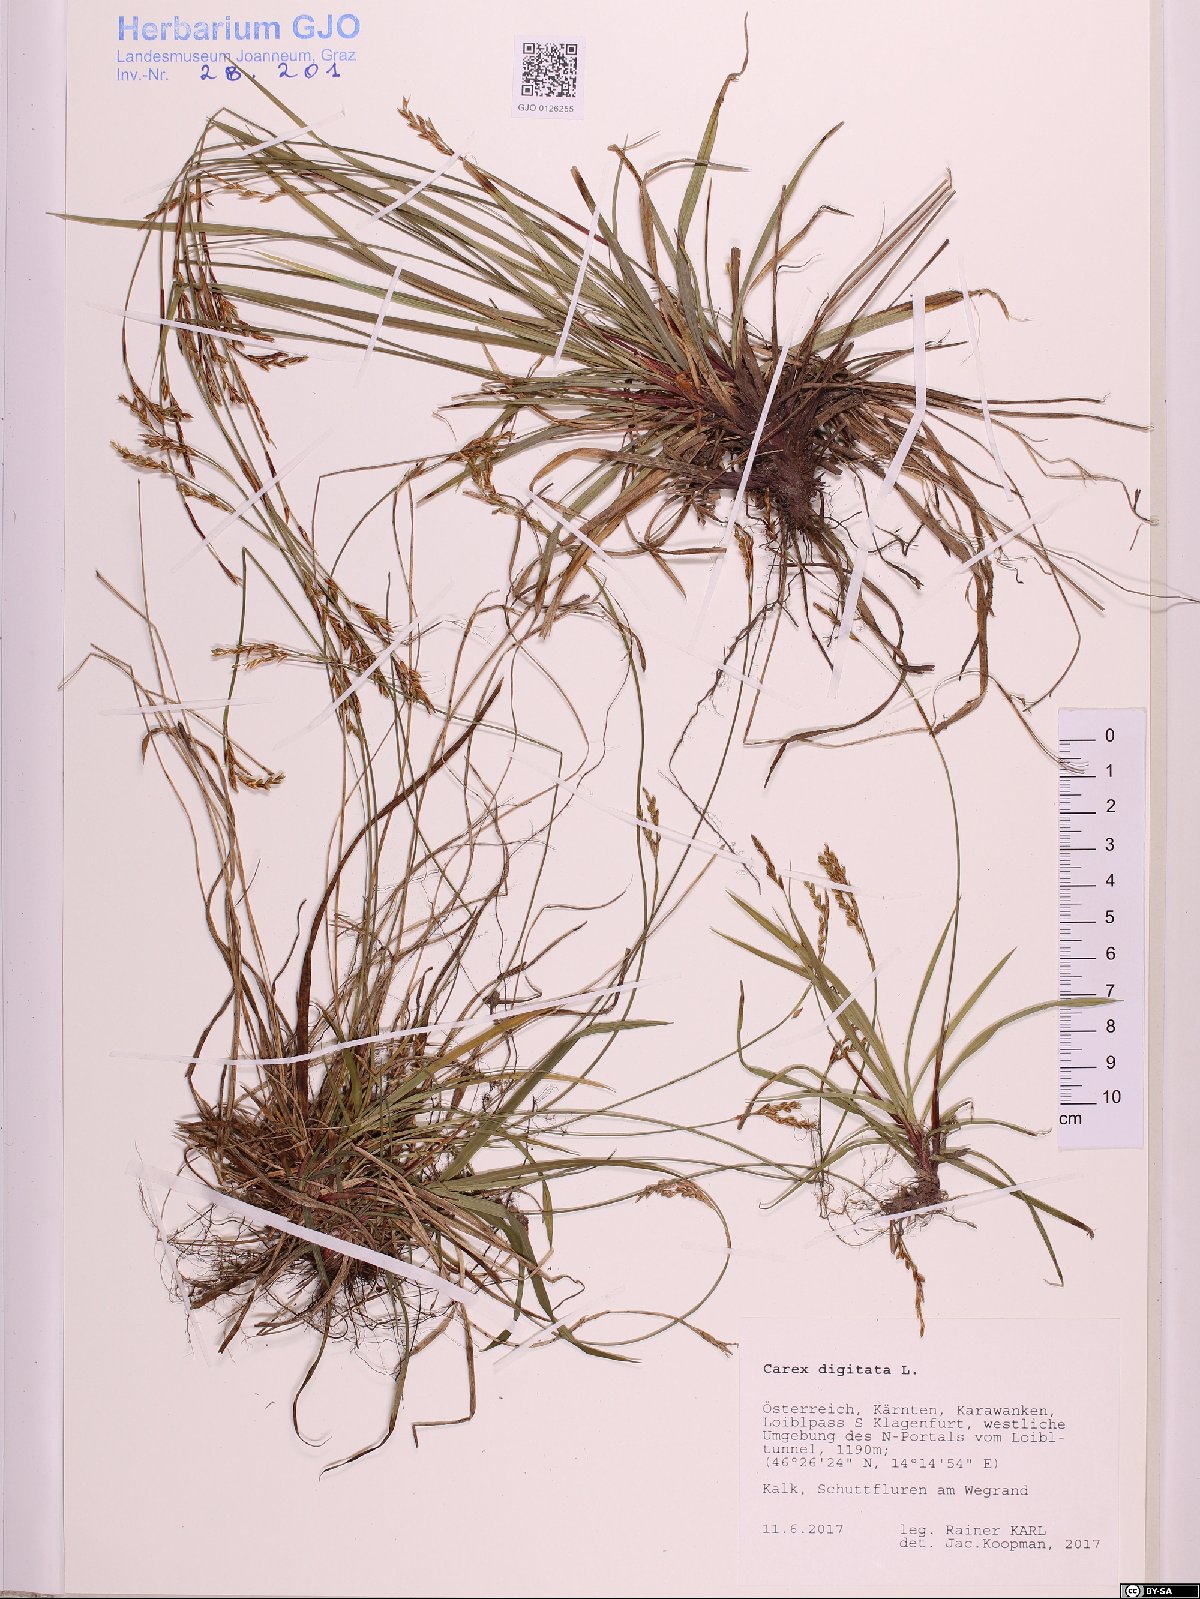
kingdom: Plantae
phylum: Tracheophyta
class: Liliopsida
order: Poales
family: Cyperaceae
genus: Carex
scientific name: Carex digitata
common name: Fingered sedge
